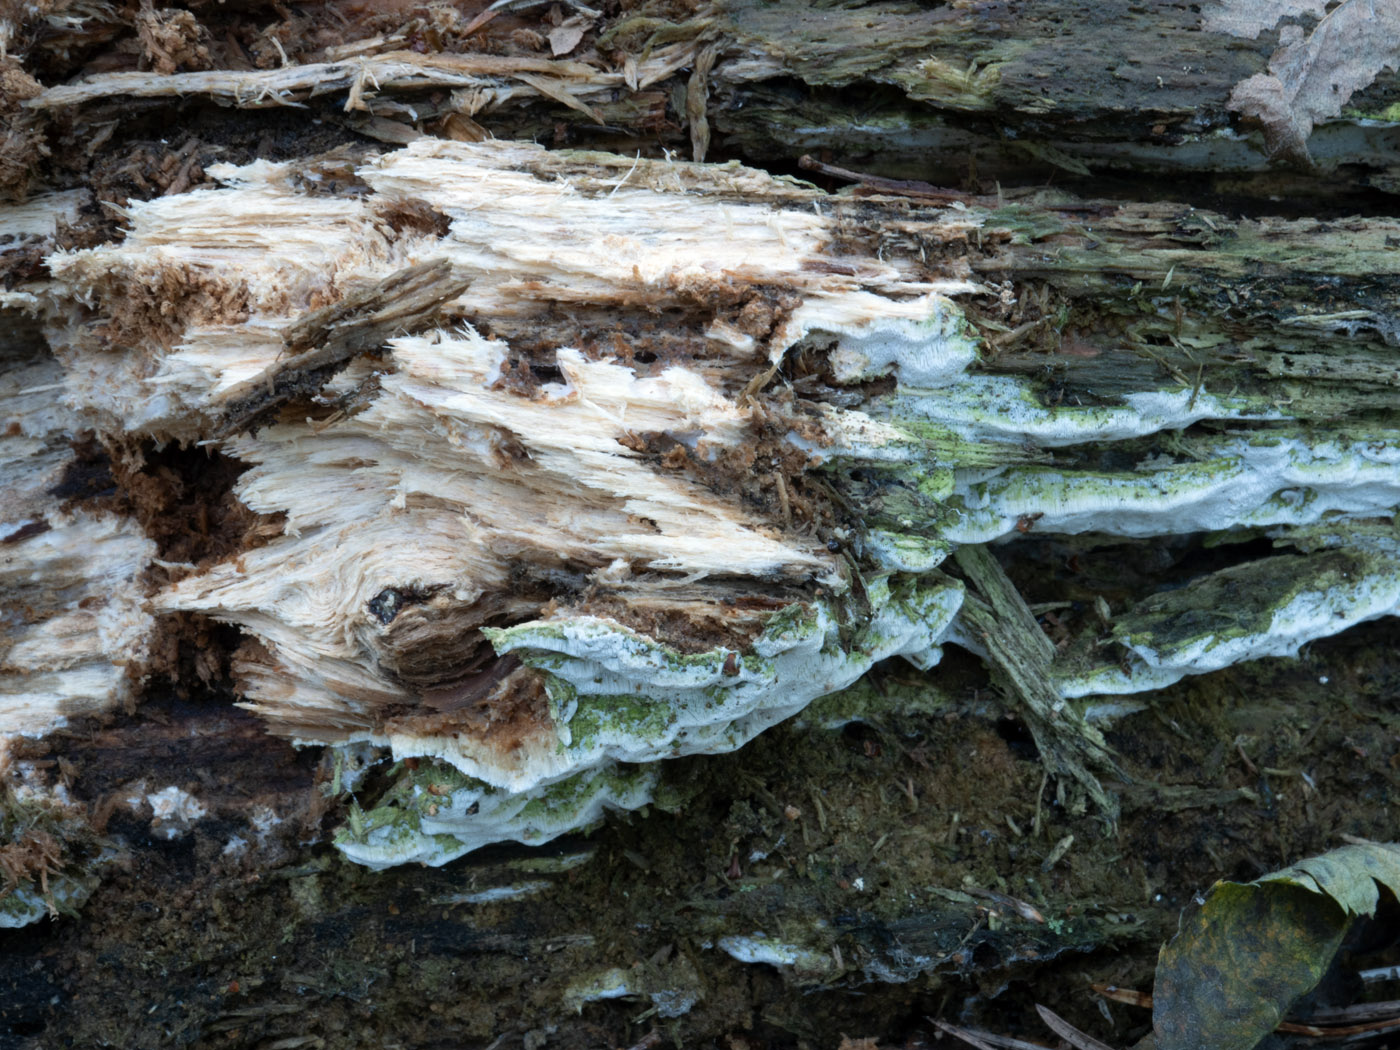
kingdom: Fungi
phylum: Basidiomycota
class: Agaricomycetes
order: Hymenochaetales
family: Rickenellaceae
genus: Sidera
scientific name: Sidera vulgaris
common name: fin flødeporesvamp
